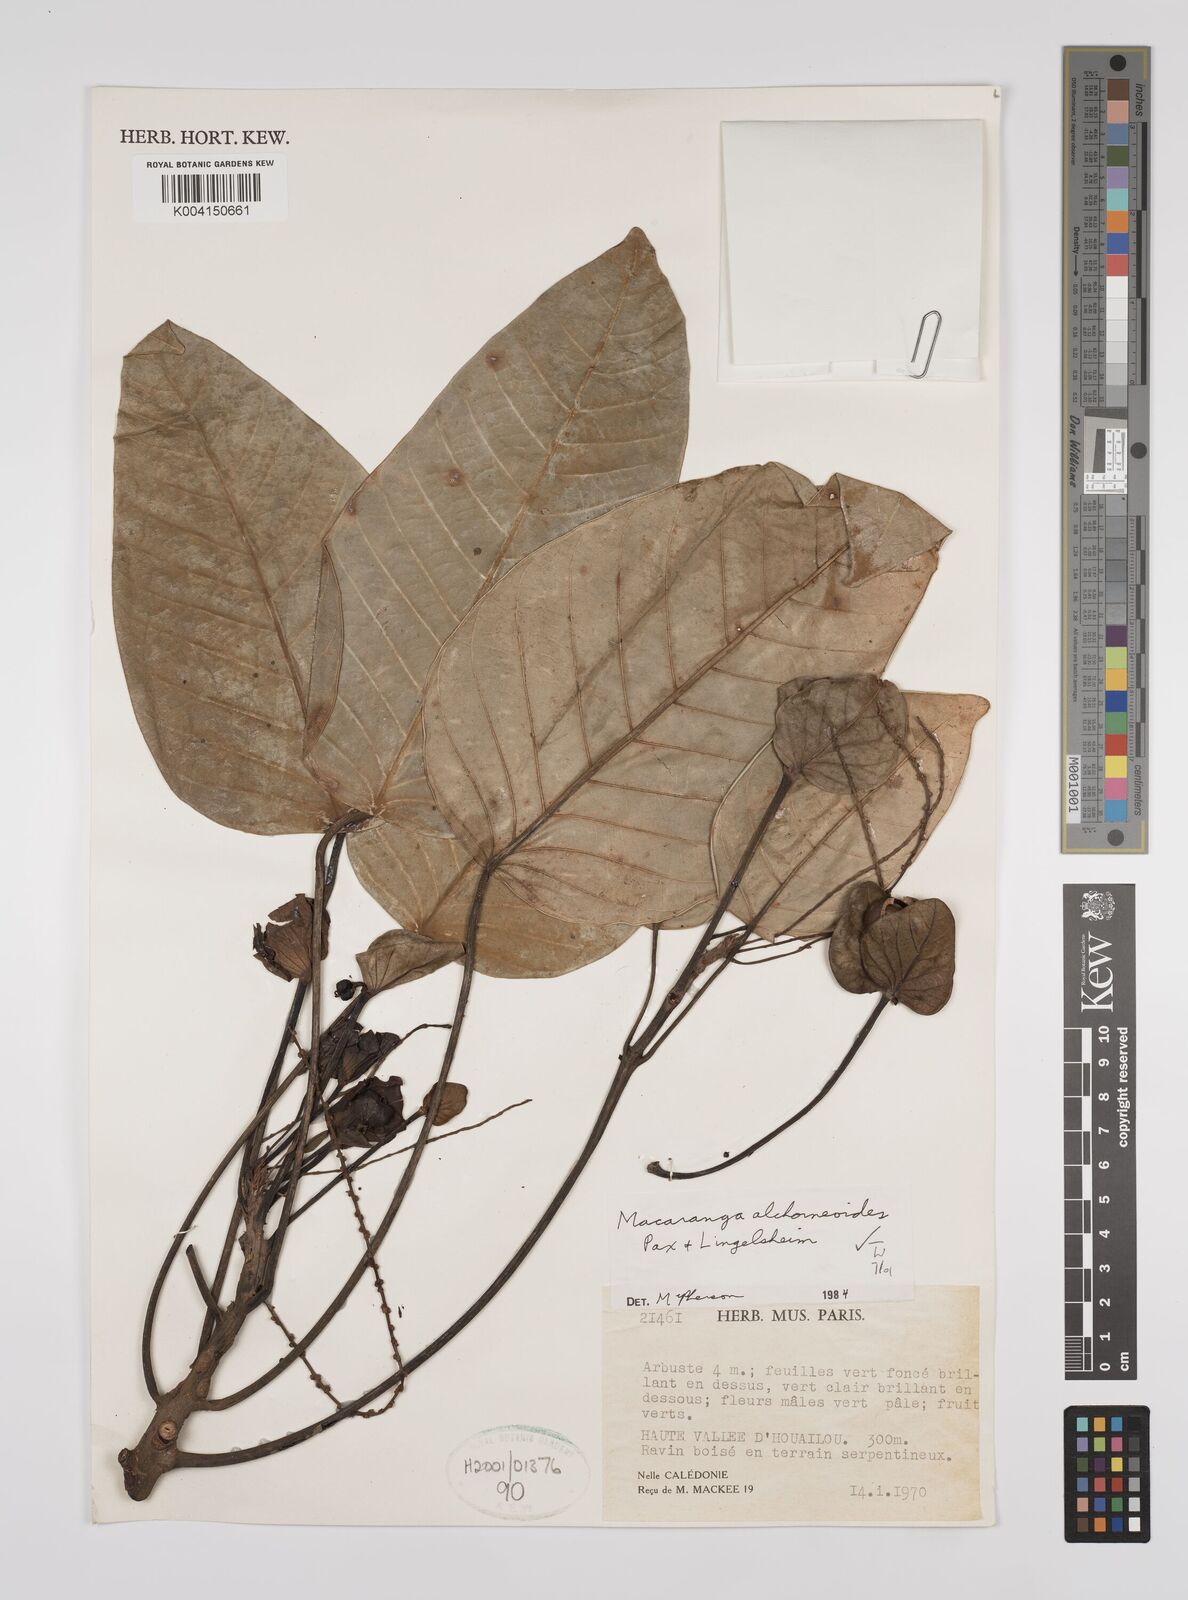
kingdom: Plantae
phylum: Tracheophyta
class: Magnoliopsida
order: Malpighiales
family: Euphorbiaceae
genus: Macaranga
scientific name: Macaranga alchorneoides
